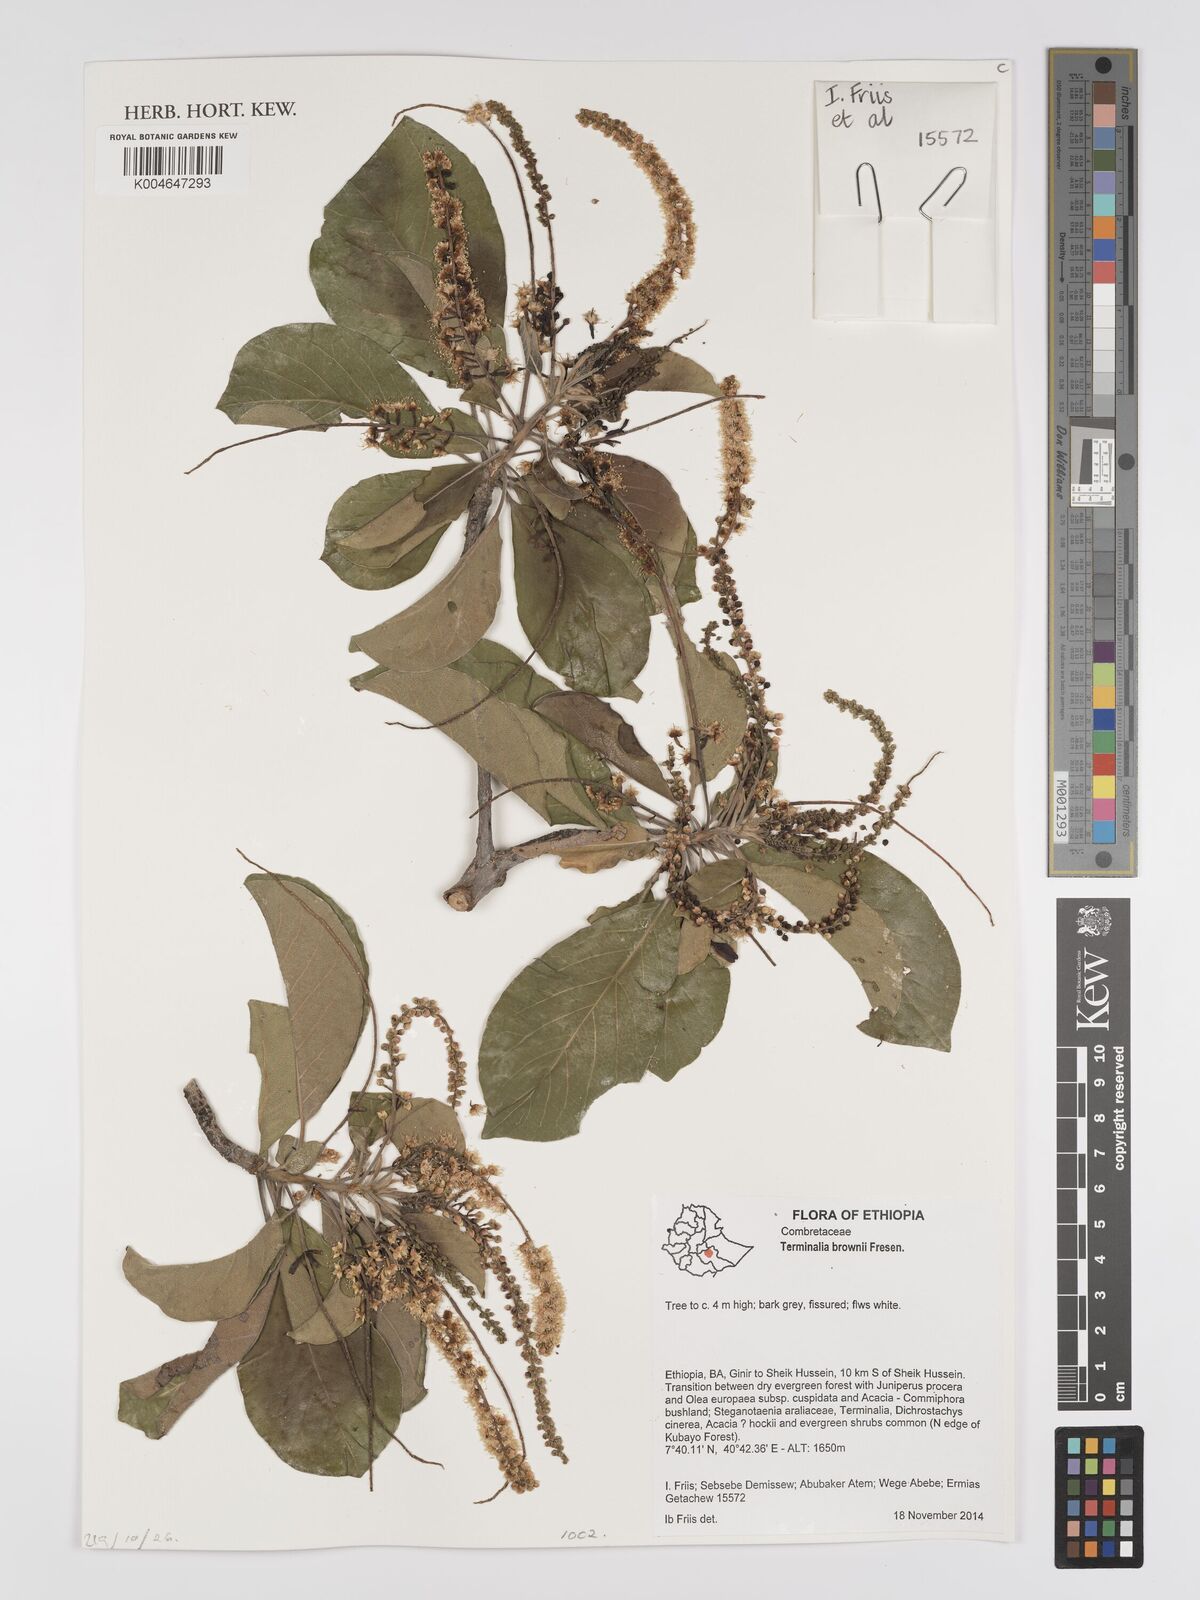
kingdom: Plantae
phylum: Tracheophyta
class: Magnoliopsida
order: Myrtales
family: Combretaceae
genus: Terminalia
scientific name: Terminalia brownii
